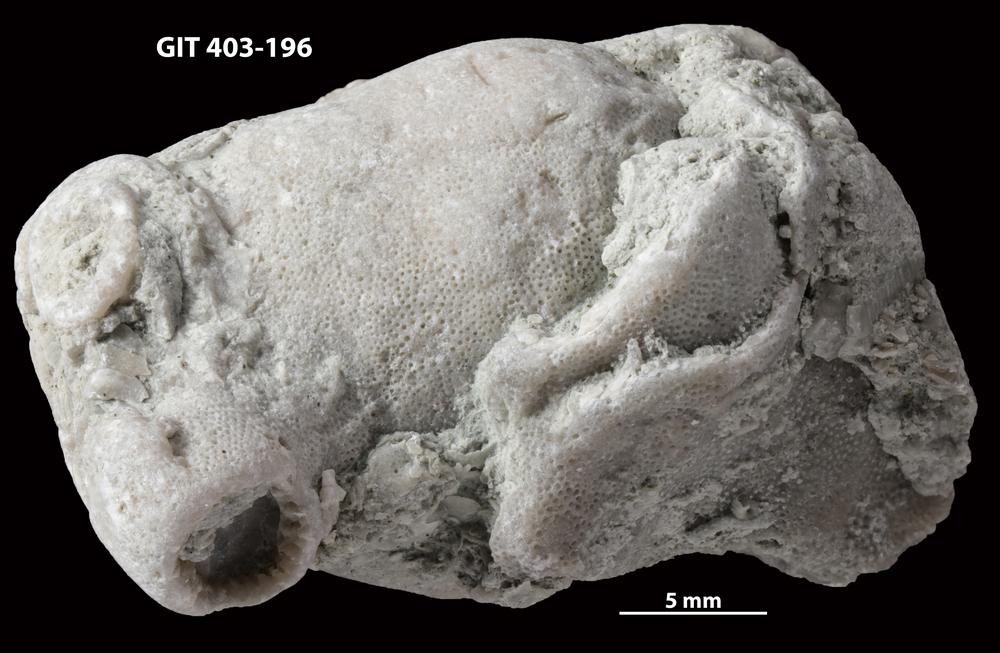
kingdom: Animalia
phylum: Bryozoa
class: Stenolaemata
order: Cystoporida
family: Fistuliporidae
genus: Fistulipora
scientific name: Fistulipora przhidolensis
